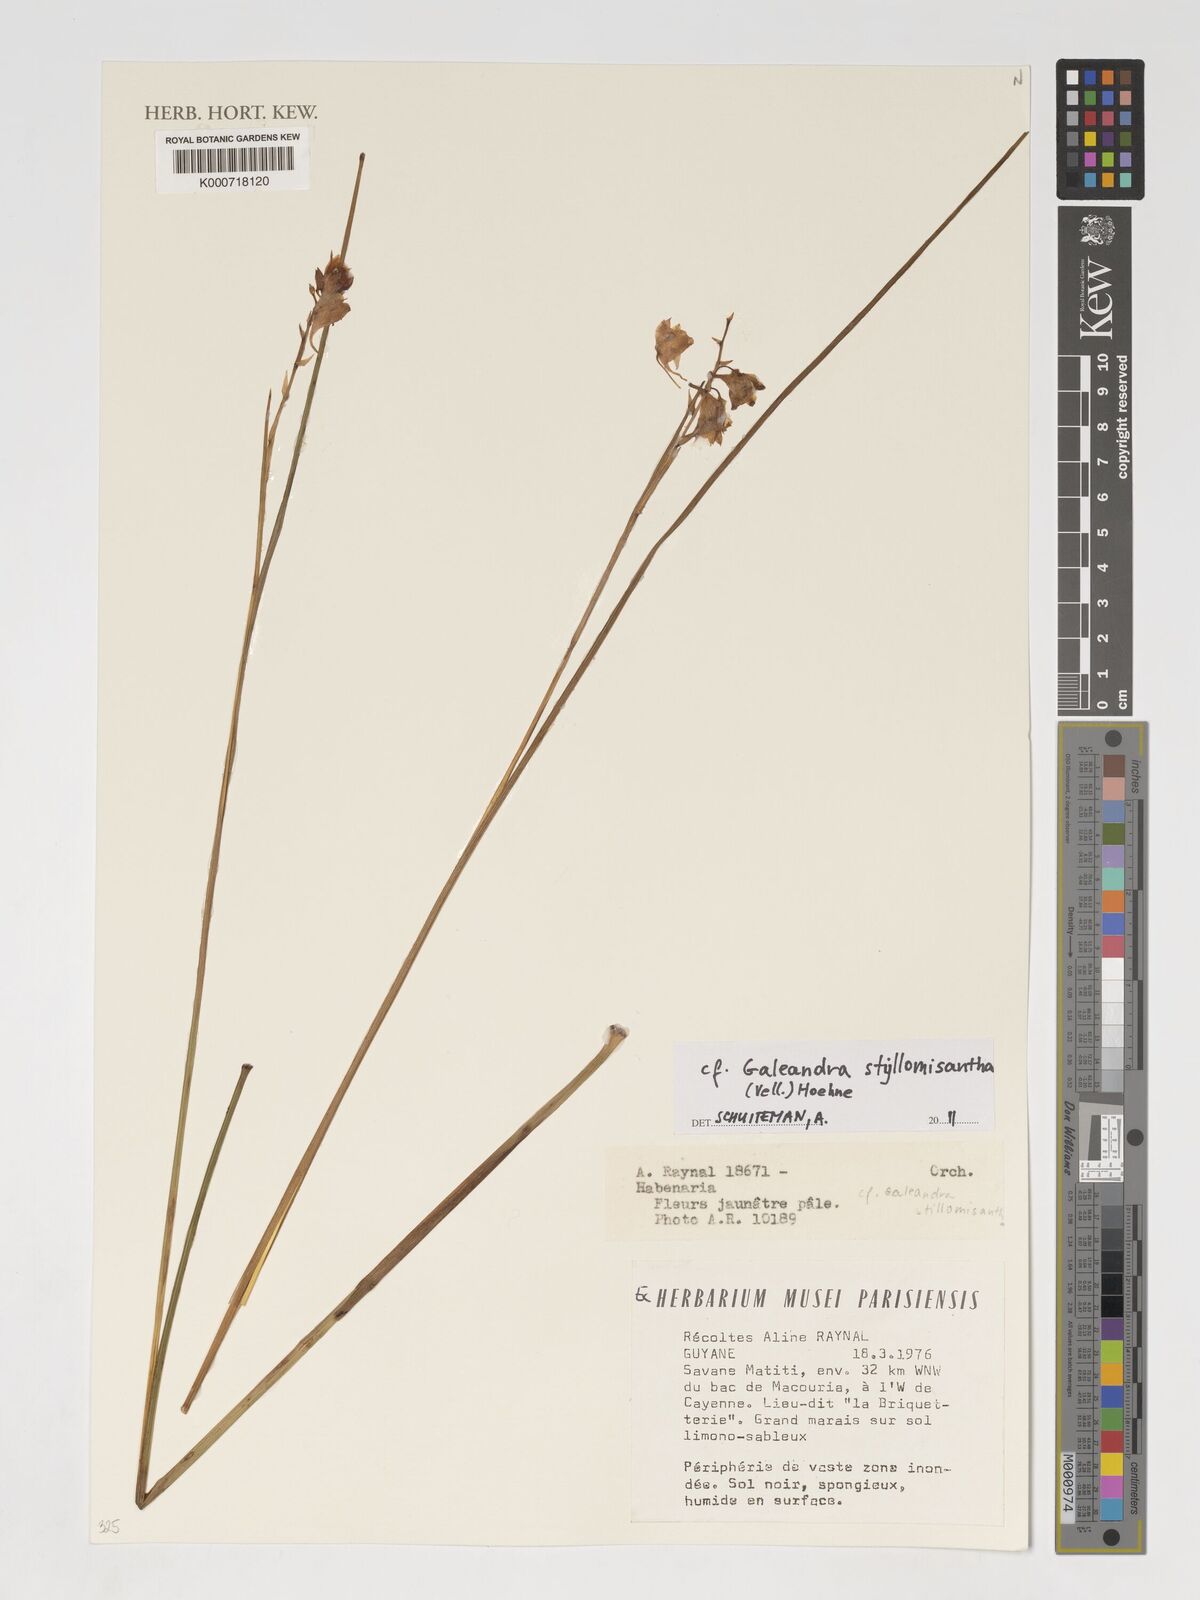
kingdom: Plantae
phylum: Tracheophyta
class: Liliopsida
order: Asparagales
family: Orchidaceae
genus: Galeandra
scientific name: Galeandra styllomisantha
